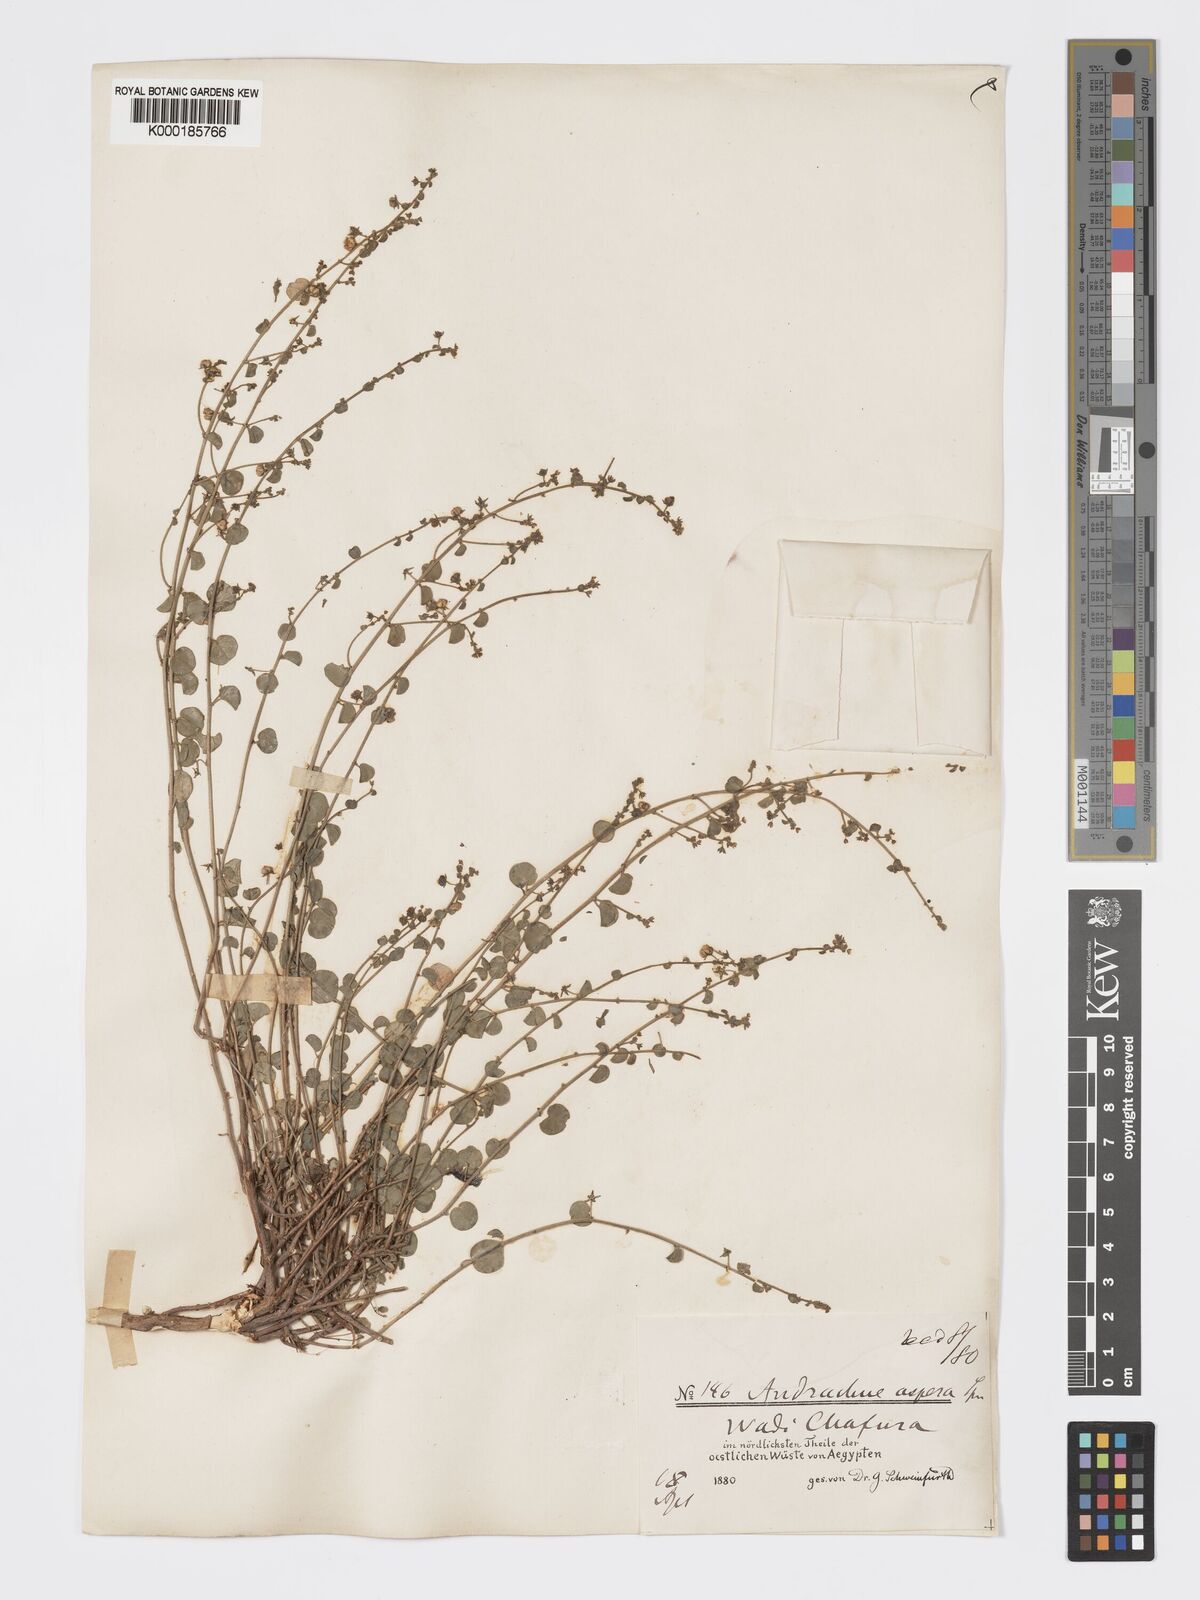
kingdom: Plantae
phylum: Tracheophyta
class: Magnoliopsida
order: Malpighiales
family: Phyllanthaceae
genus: Andrachne
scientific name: Andrachne aspera
